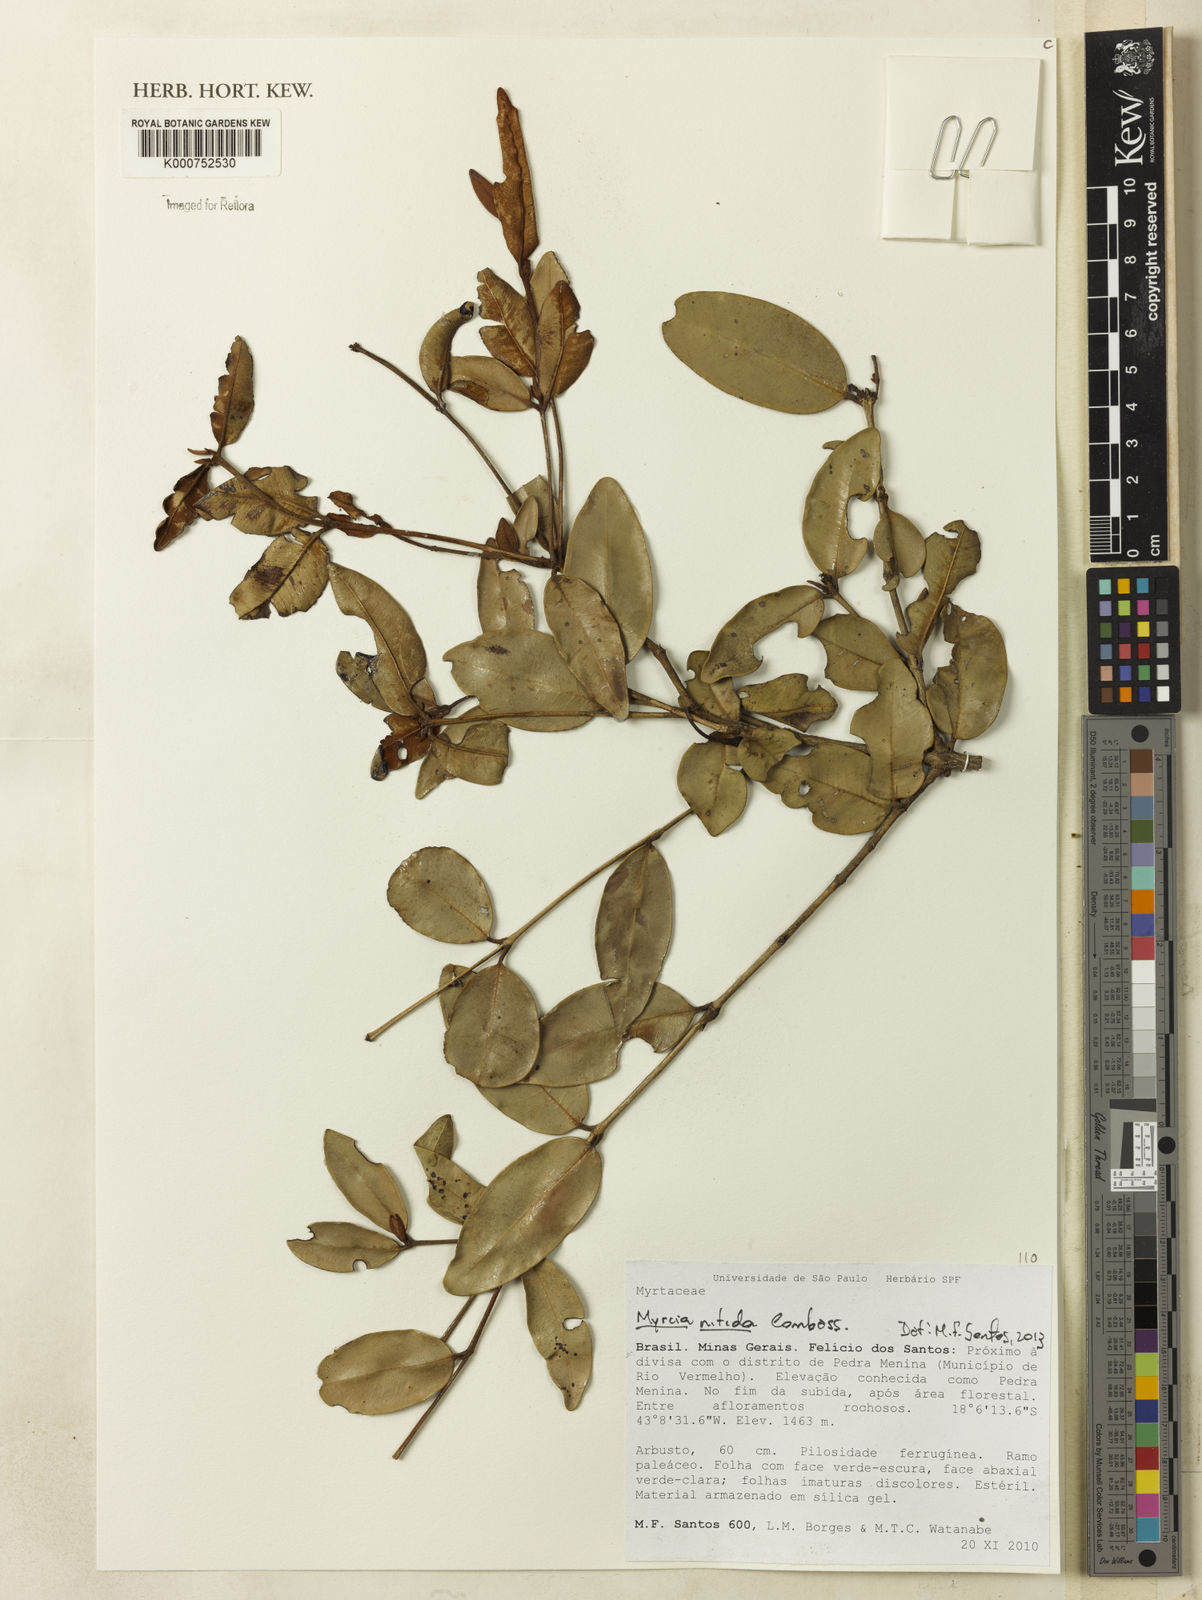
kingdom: Plantae
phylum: Tracheophyta
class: Magnoliopsida
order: Myrtales
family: Myrtaceae
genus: Myrcia
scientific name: Myrcia nitida
